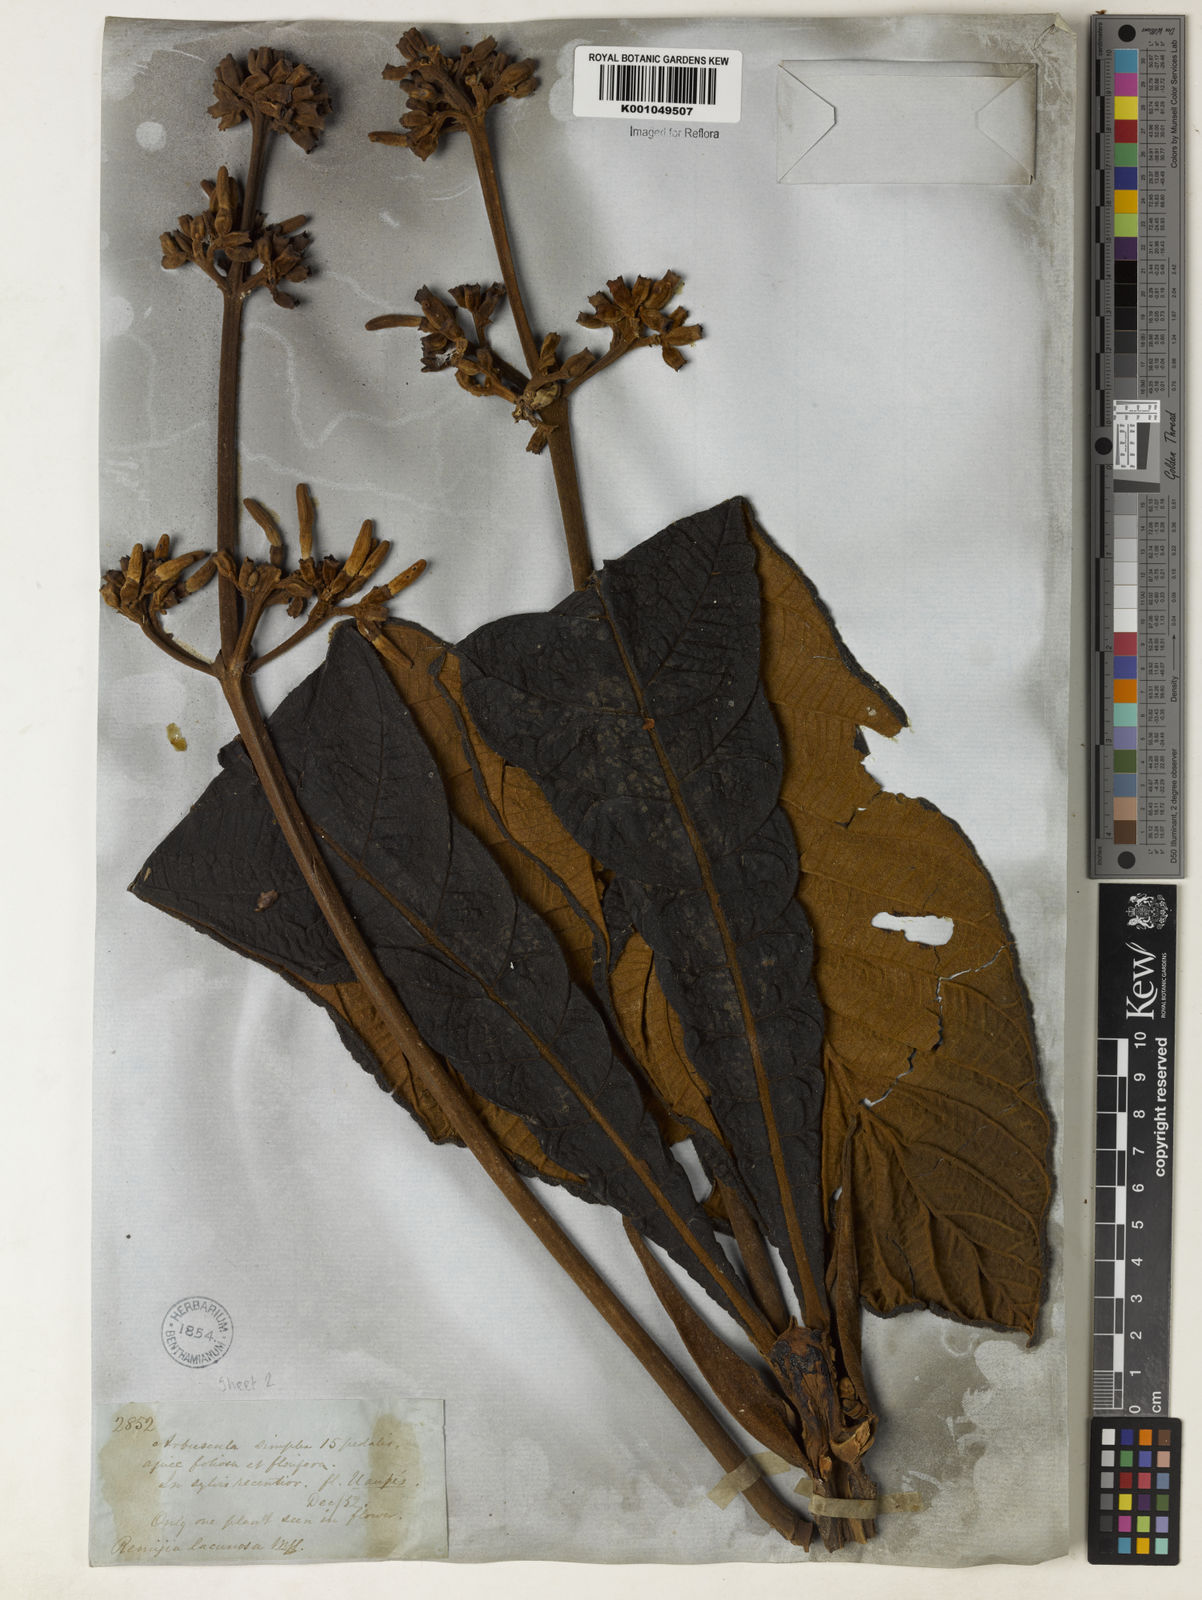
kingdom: Plantae
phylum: Tracheophyta
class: Magnoliopsida
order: Gentianales
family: Rubiaceae
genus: Remijia
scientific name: Remijia lacunosa
